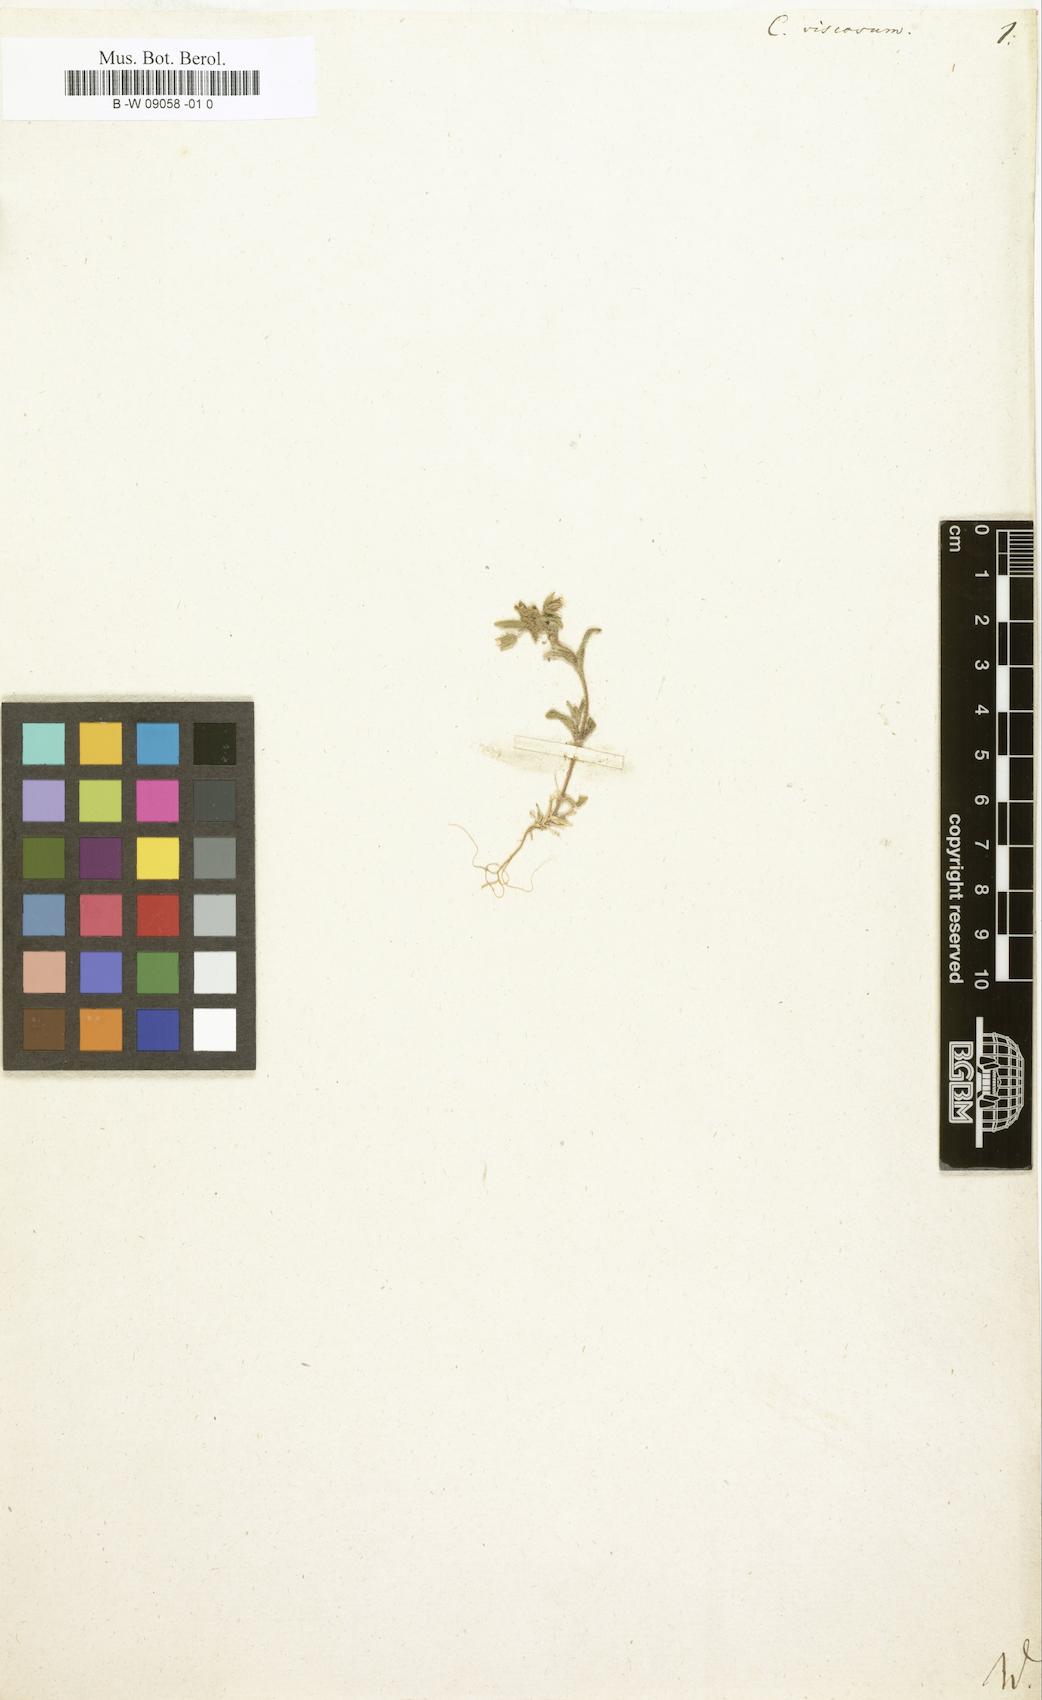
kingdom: Plantae
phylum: Tracheophyta
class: Magnoliopsida
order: Caryophyllales
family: Caryophyllaceae
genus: Cerastium
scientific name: Cerastium
